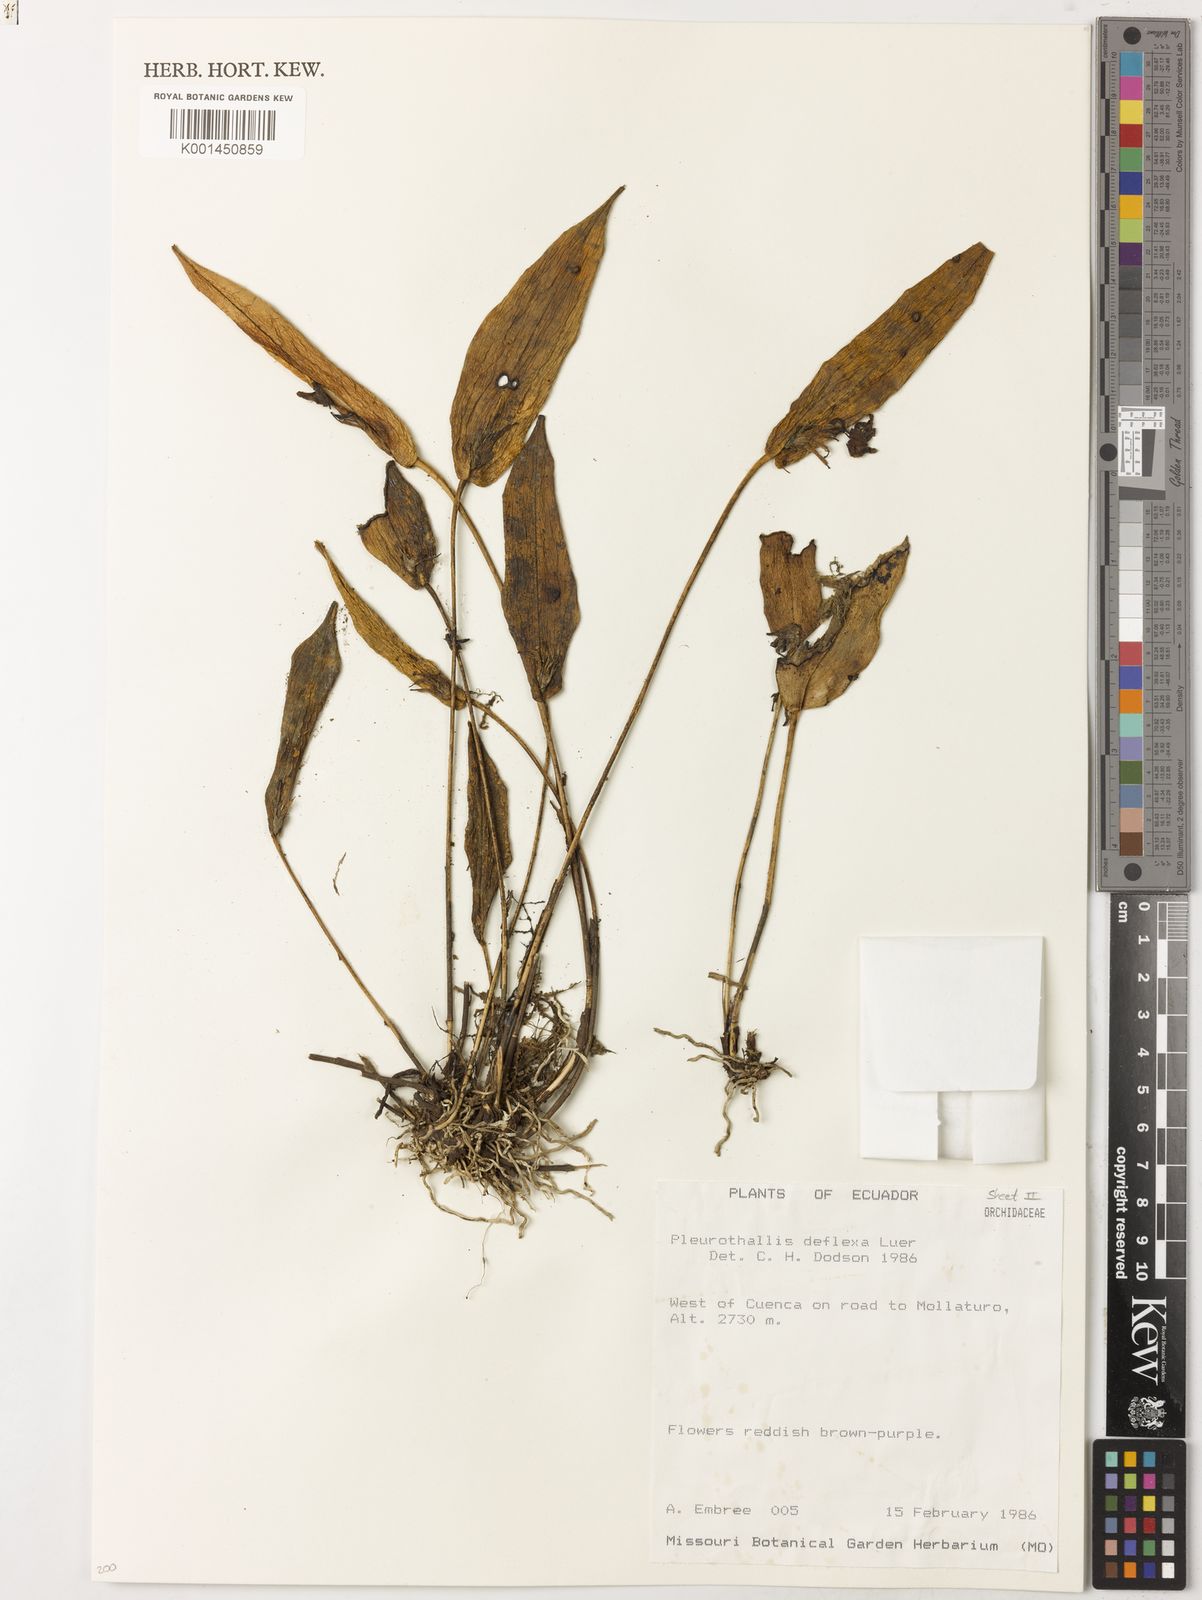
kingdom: Plantae
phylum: Tracheophyta
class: Liliopsida
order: Asparagales
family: Orchidaceae
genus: Pleurothallis
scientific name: Pleurothallis deflexa
